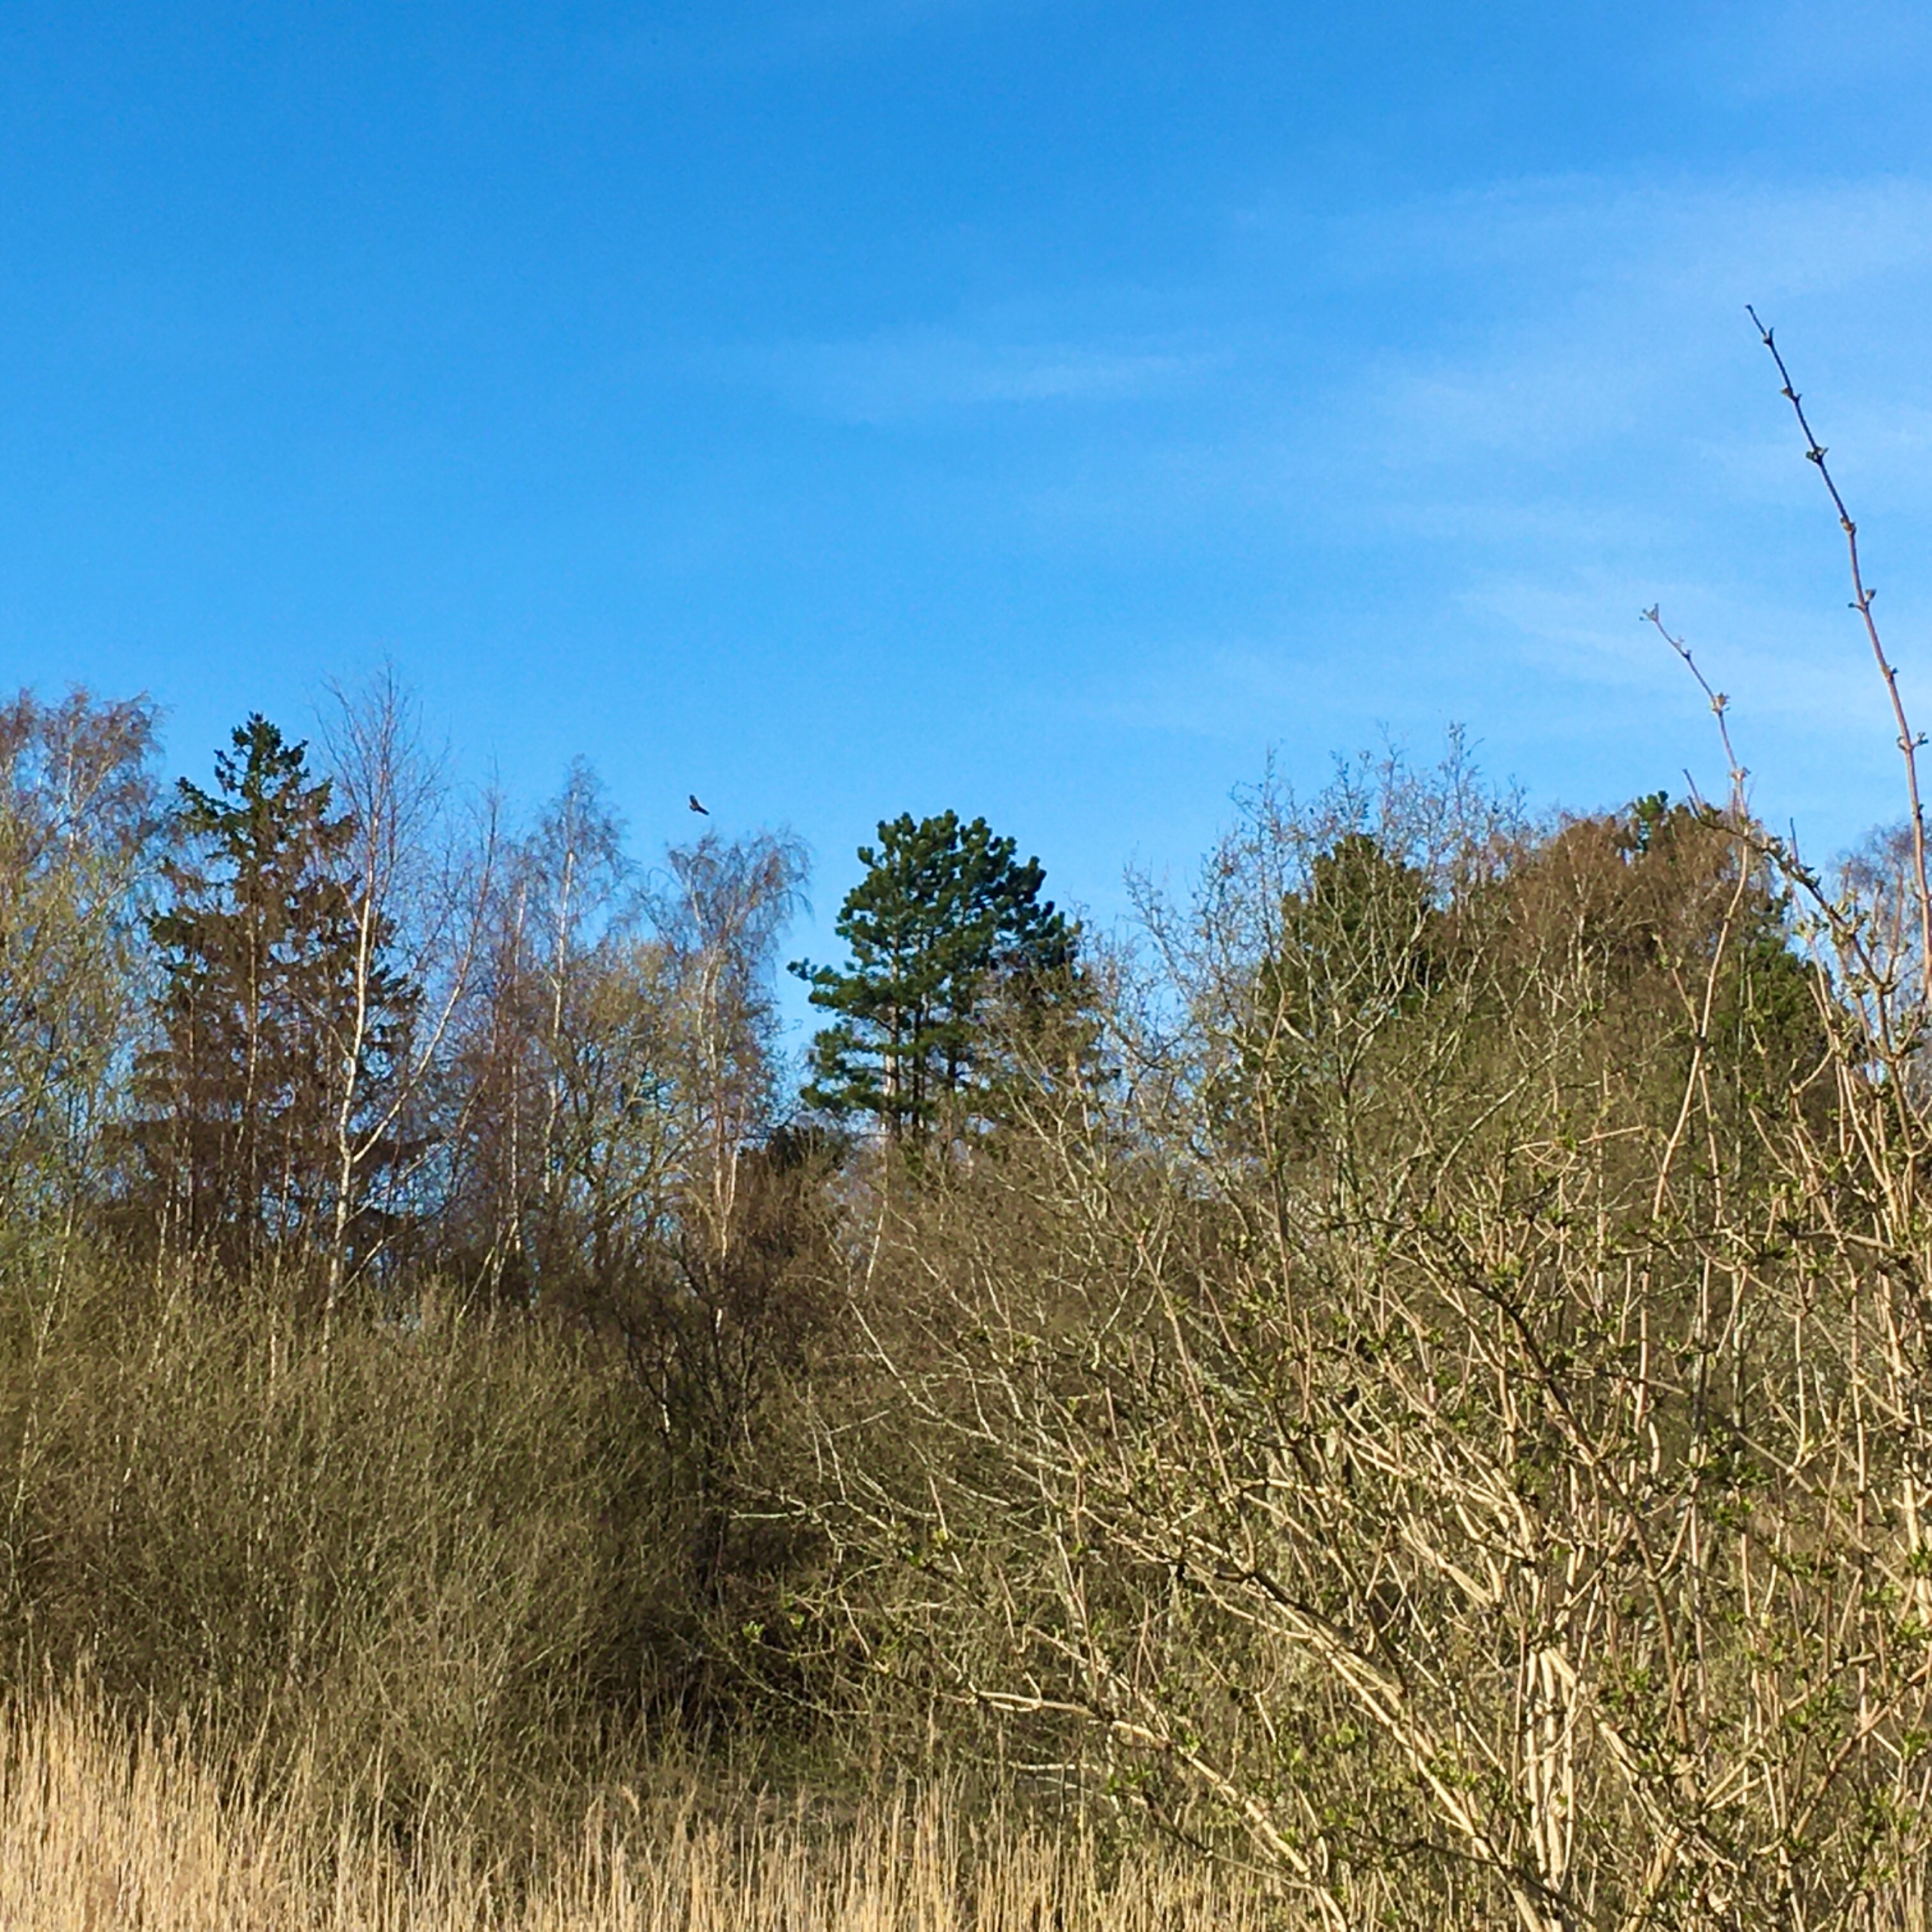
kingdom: Animalia
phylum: Chordata
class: Aves
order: Accipitriformes
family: Accipitridae
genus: Buteo
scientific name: Buteo buteo
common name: Musvåge
